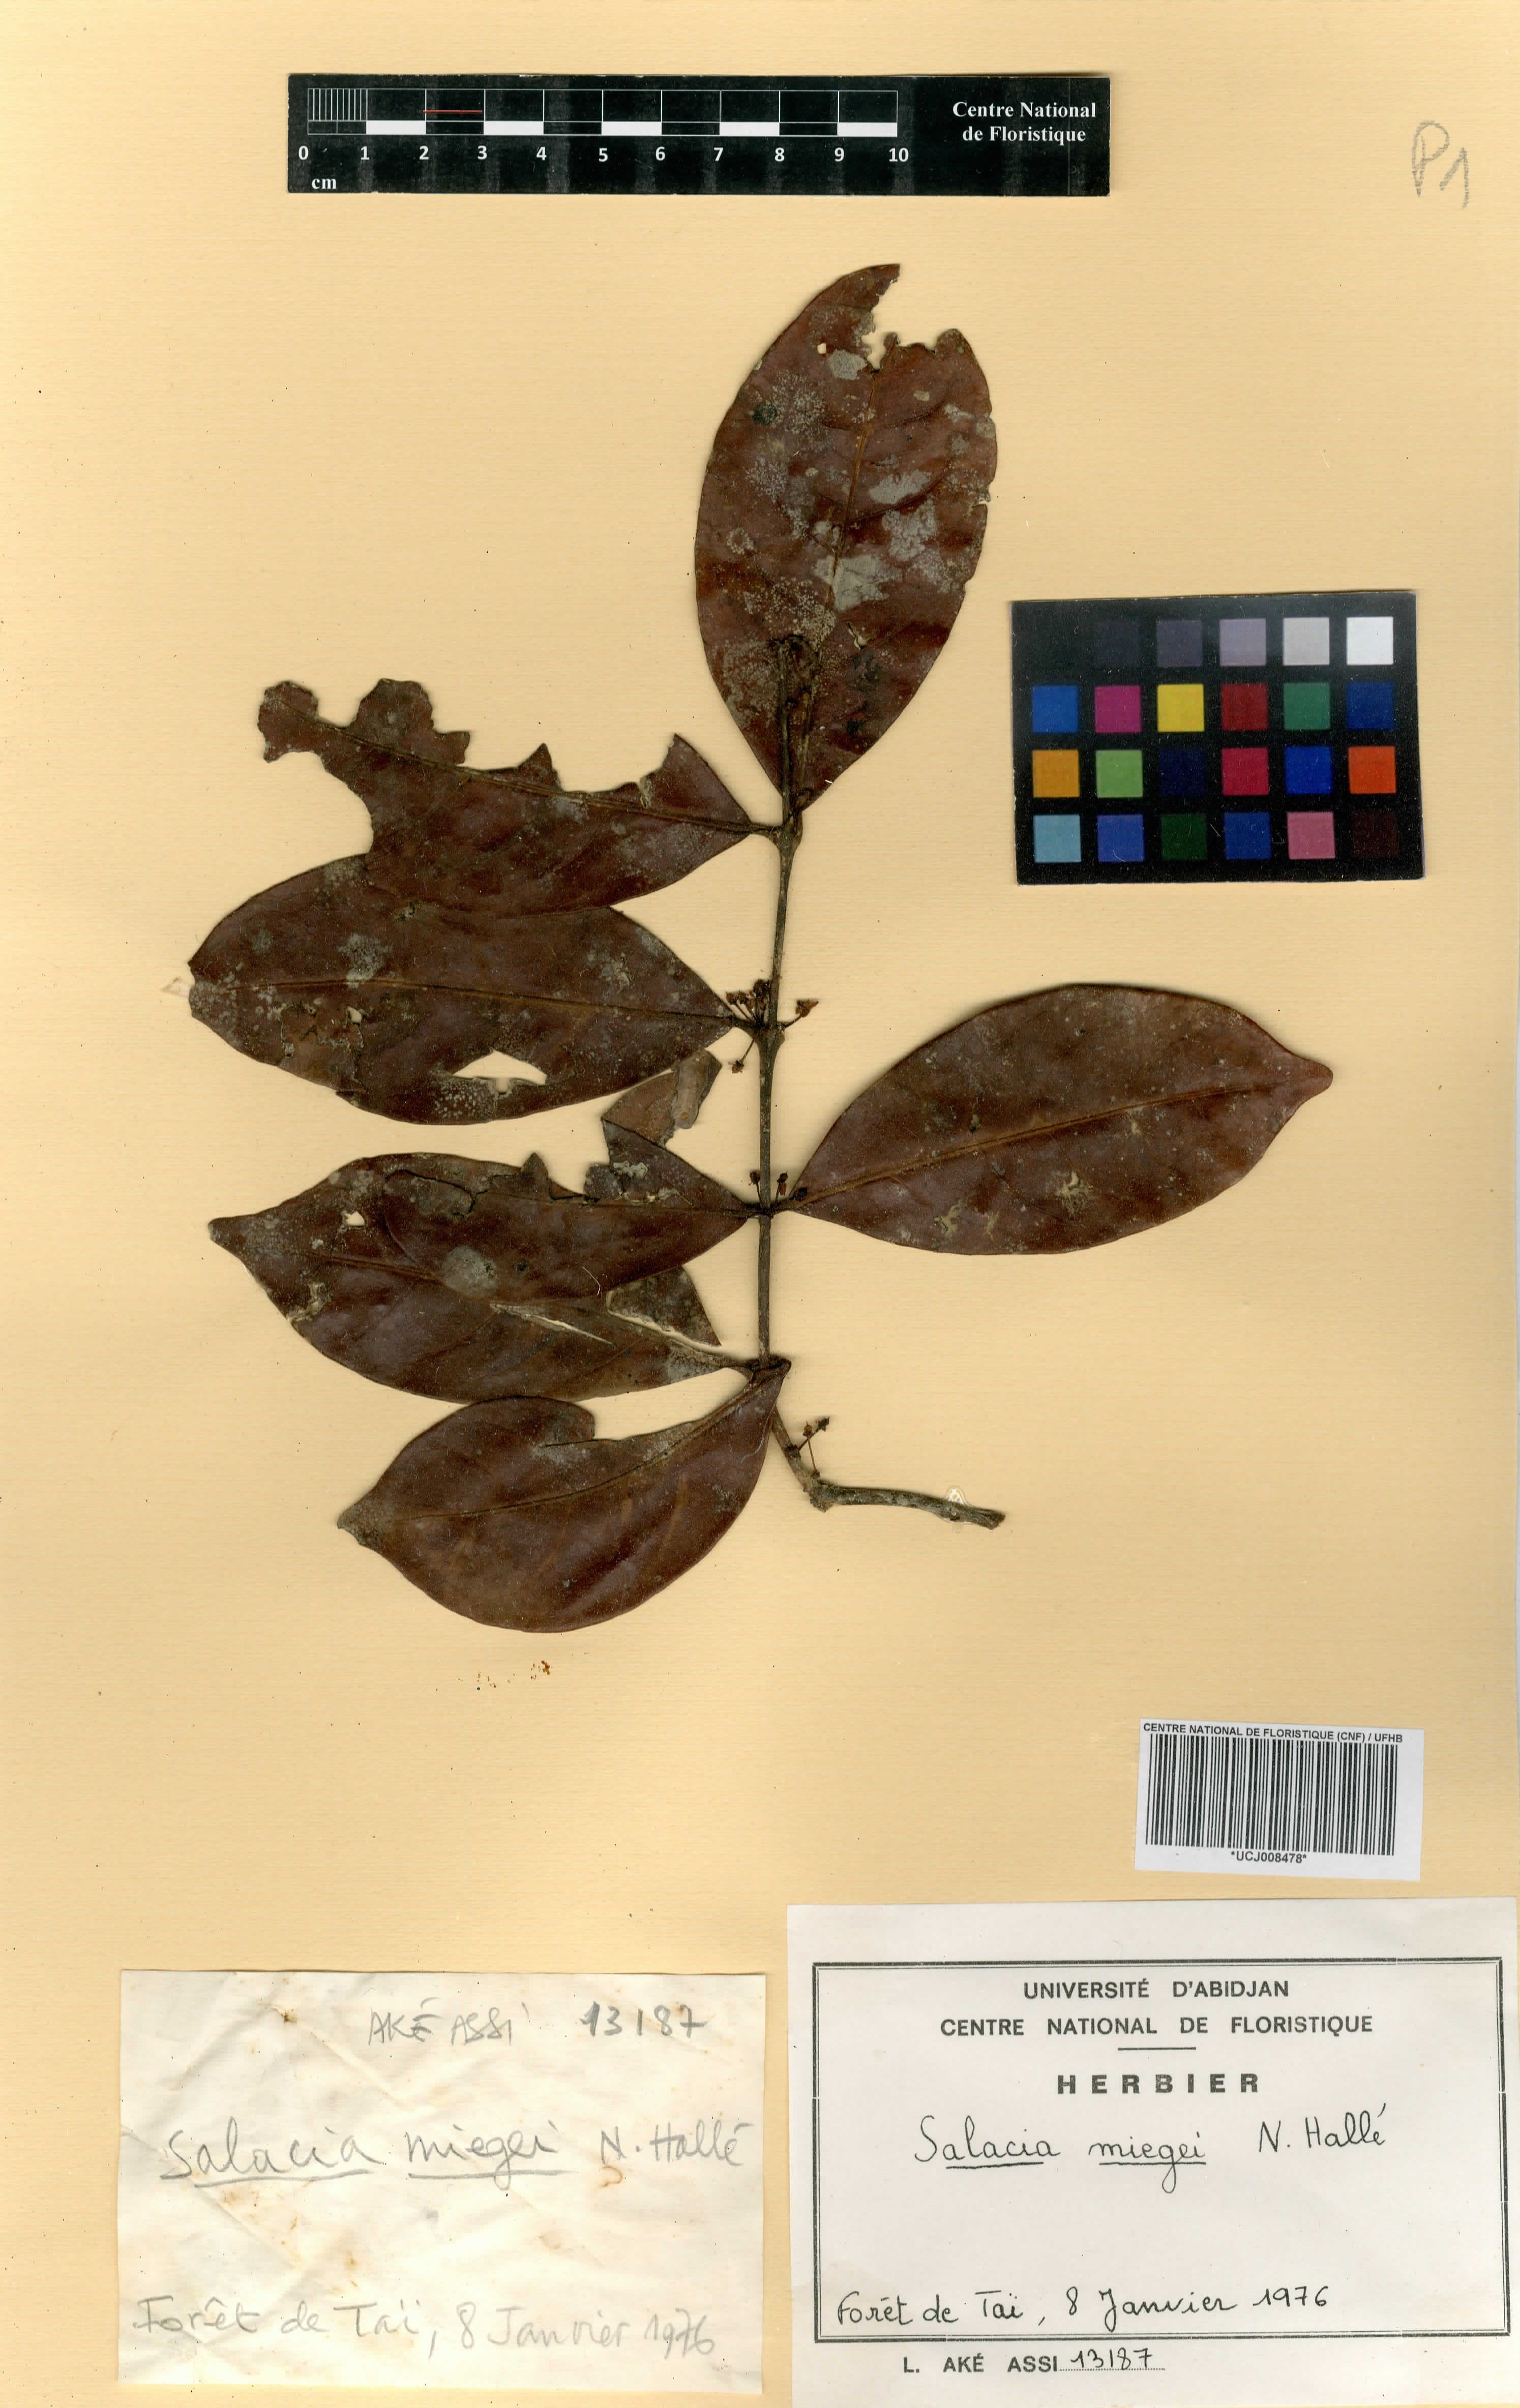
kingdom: Plantae
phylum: Tracheophyta
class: Magnoliopsida
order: Celastrales
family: Celastraceae
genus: Salacia
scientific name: Salacia miegei
